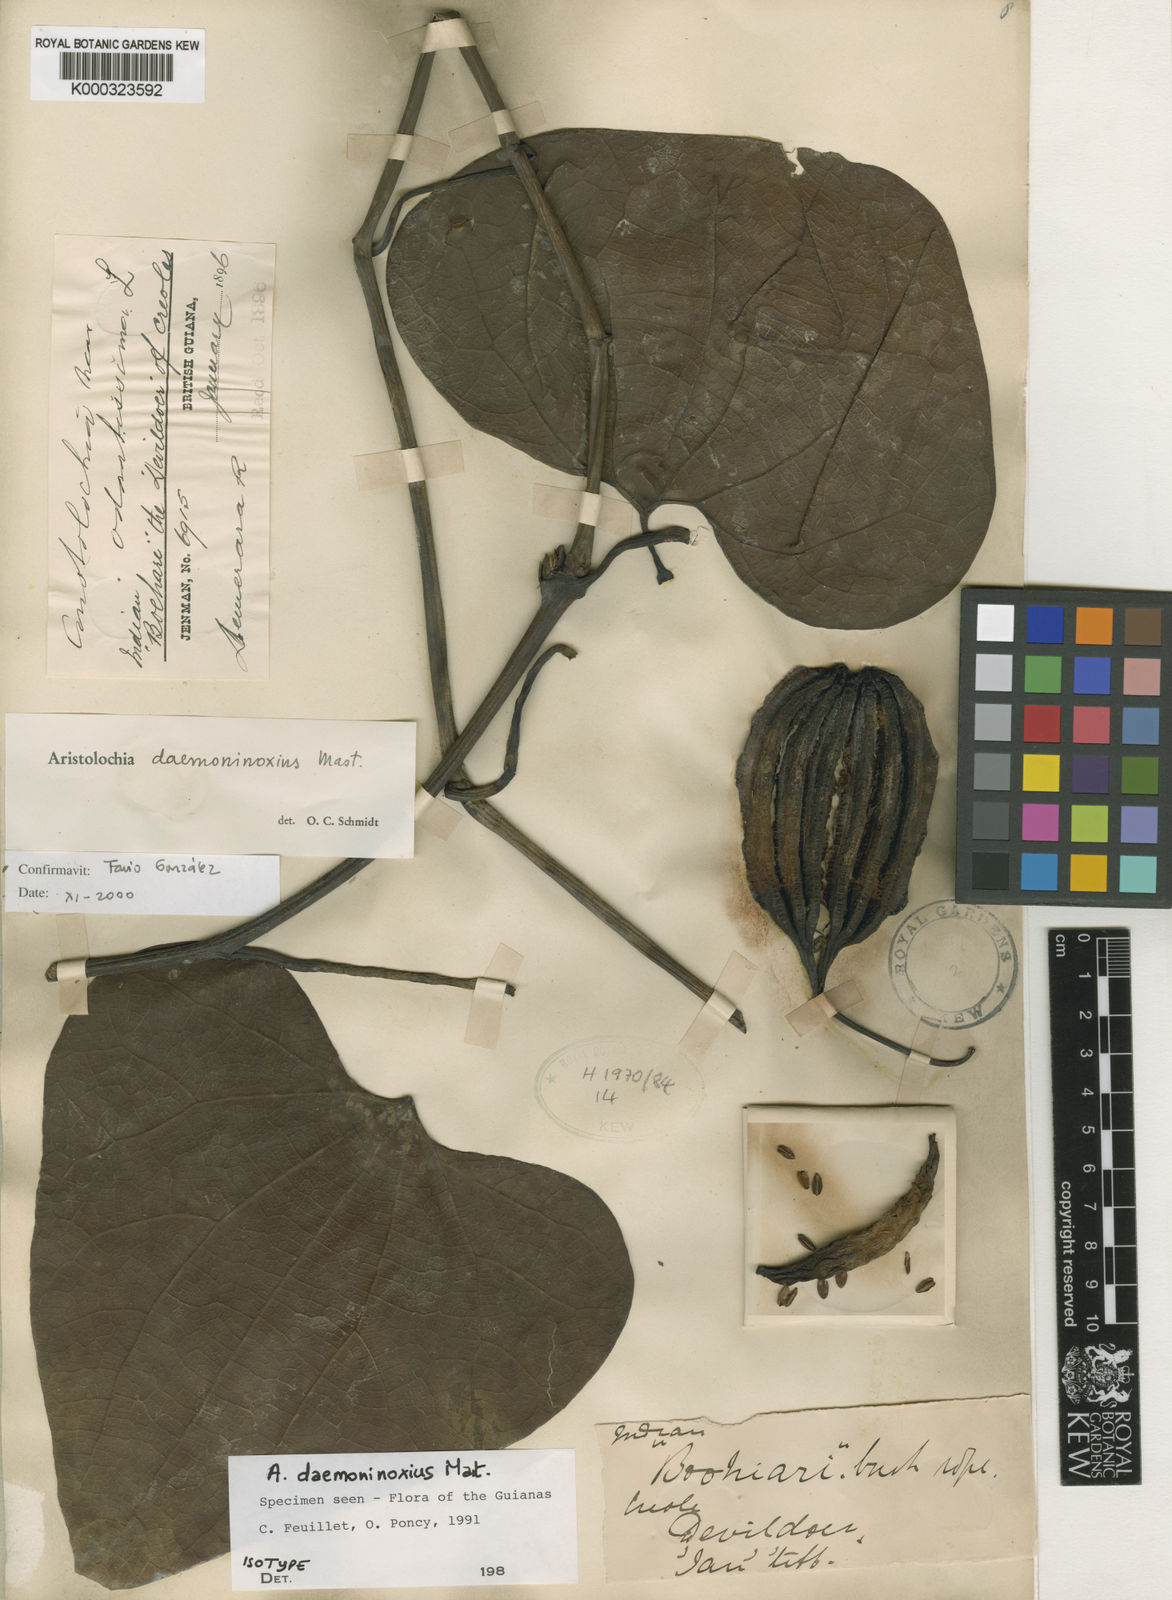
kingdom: Plantae
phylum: Tracheophyta
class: Magnoliopsida
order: Piperales
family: Aristolochiaceae
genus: Aristolochia
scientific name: Aristolochia daemoninoxia
